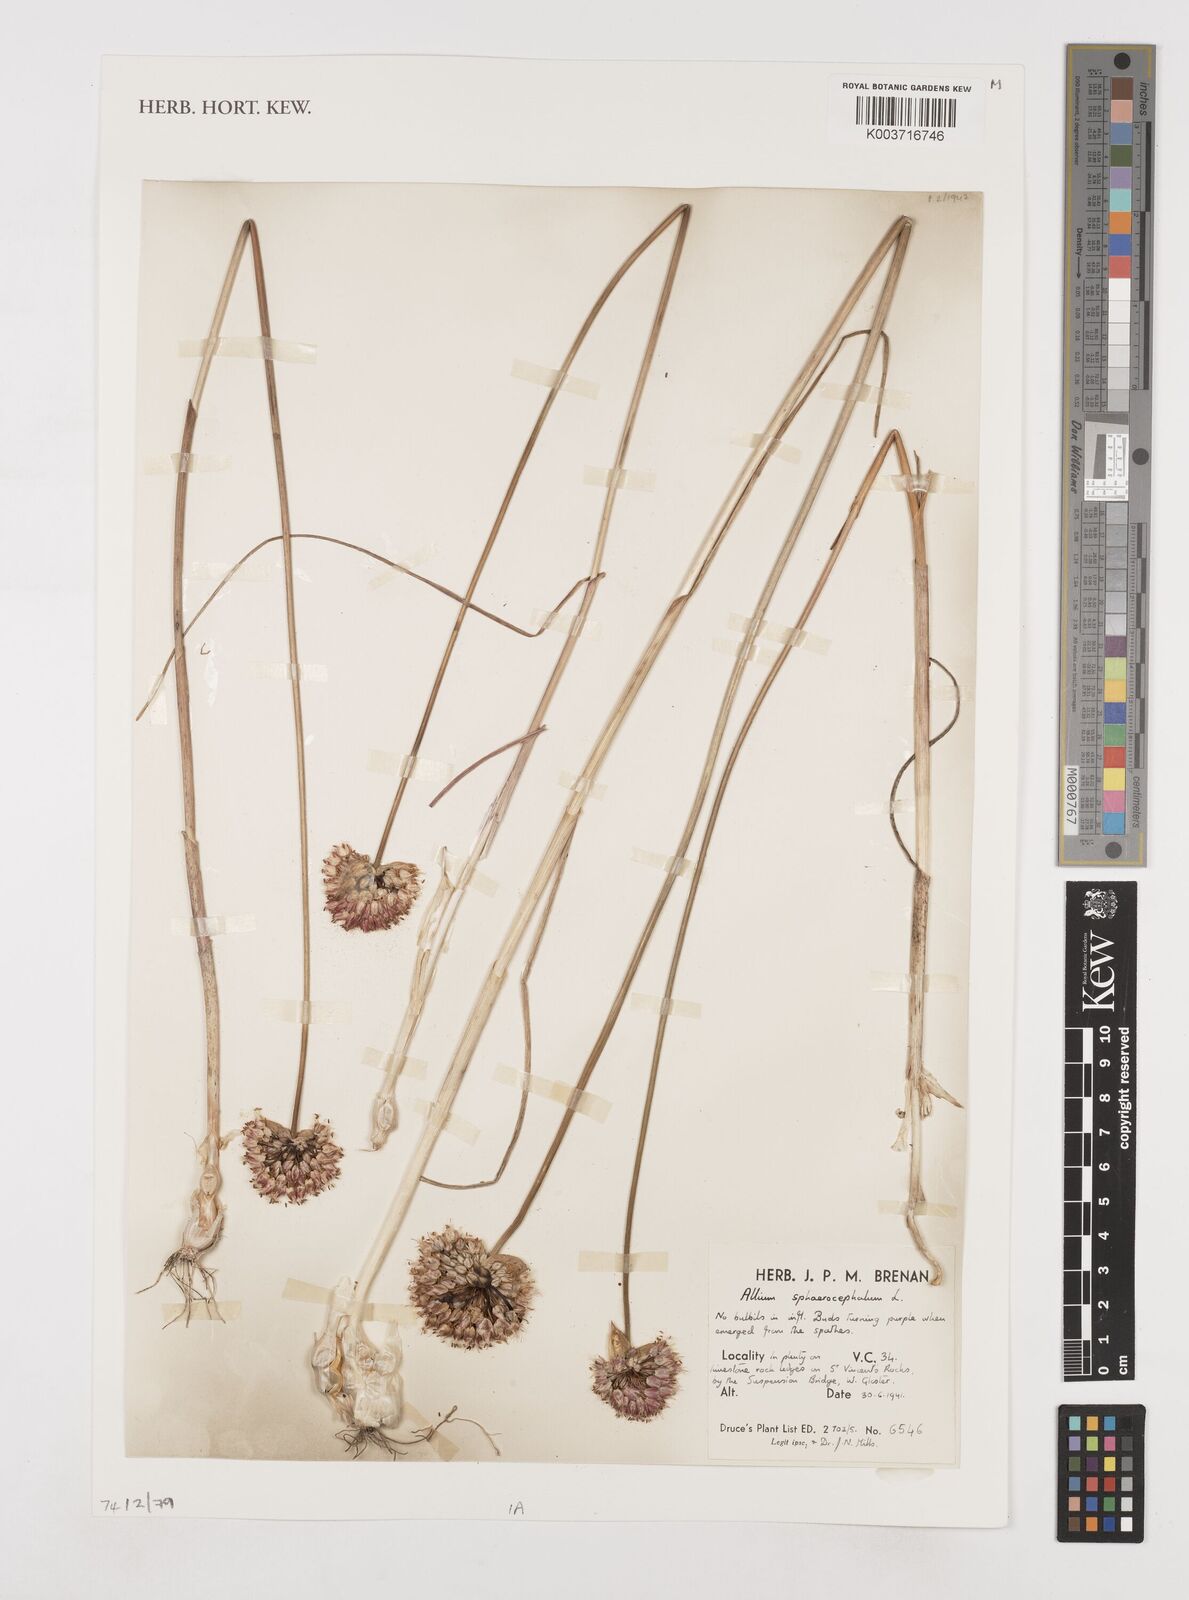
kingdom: Plantae
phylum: Tracheophyta
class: Liliopsida
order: Asparagales
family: Amaryllidaceae
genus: Allium
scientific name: Allium sphaerocephalon
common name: Round-headed leek
